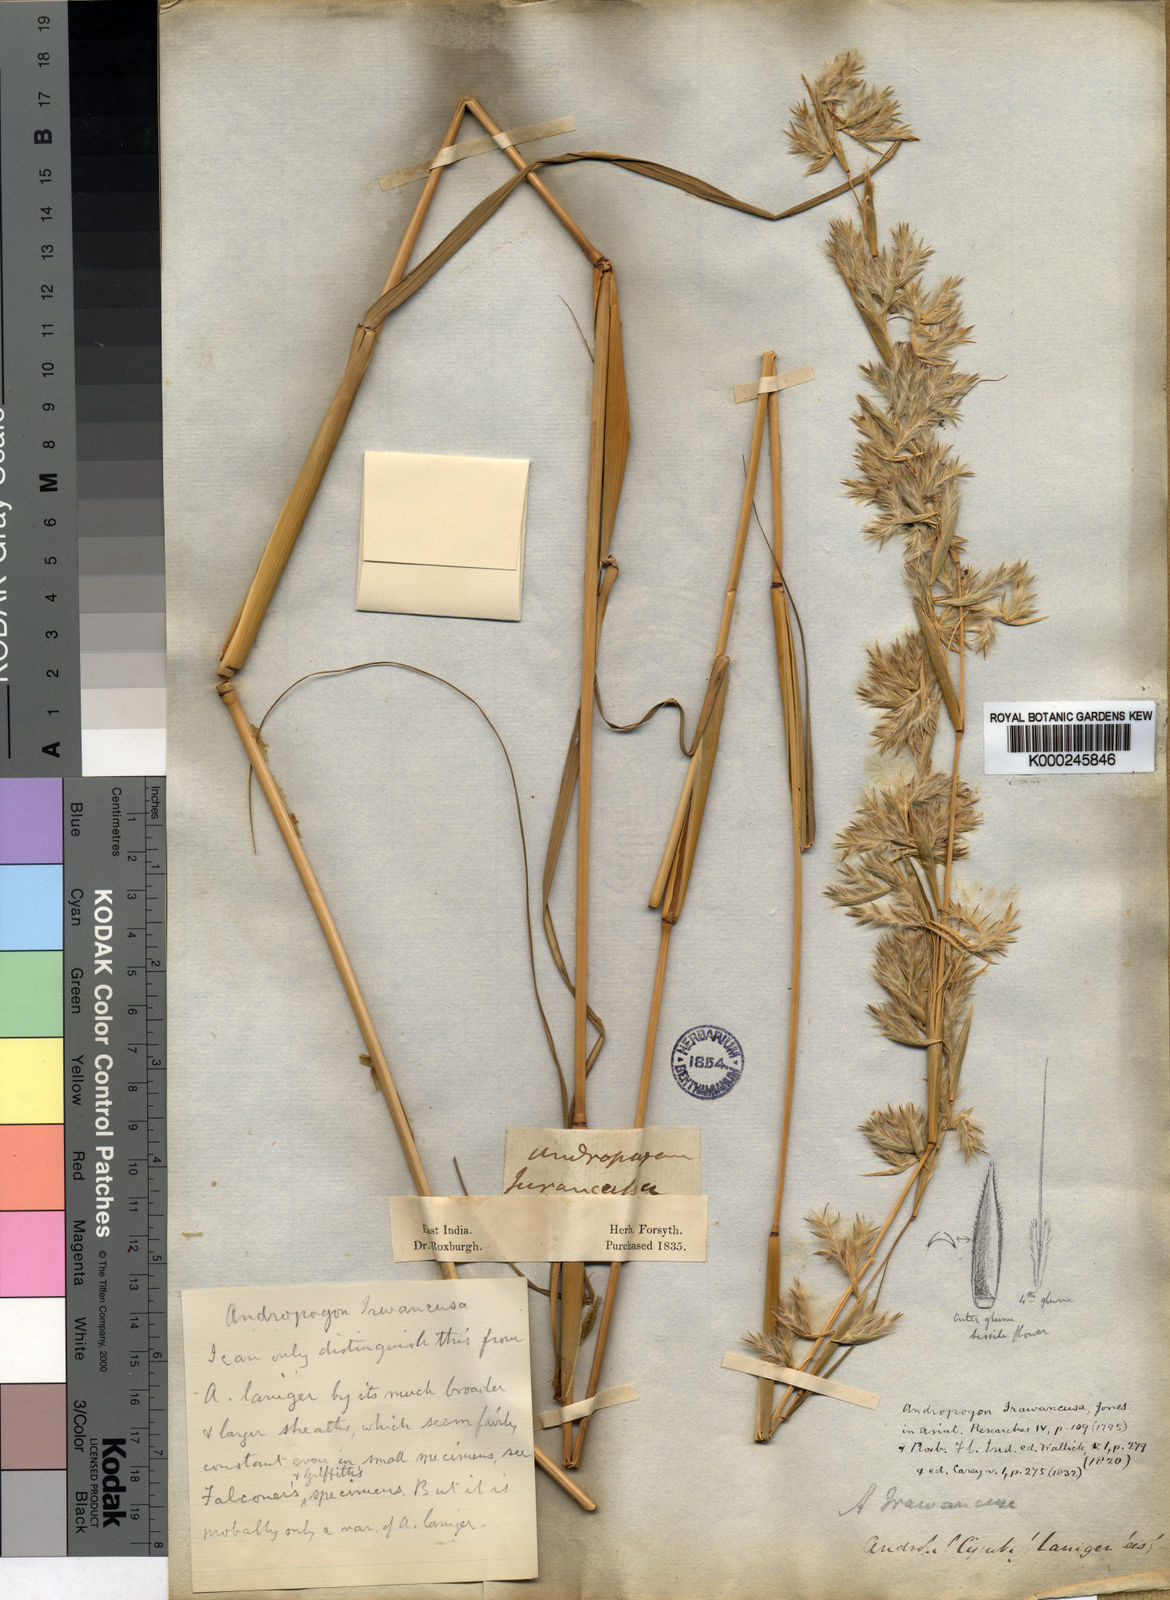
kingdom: Plantae
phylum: Tracheophyta
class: Liliopsida
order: Poales
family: Poaceae
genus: Cymbopogon
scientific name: Cymbopogon iwarancusa
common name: Iwarancusa grass
